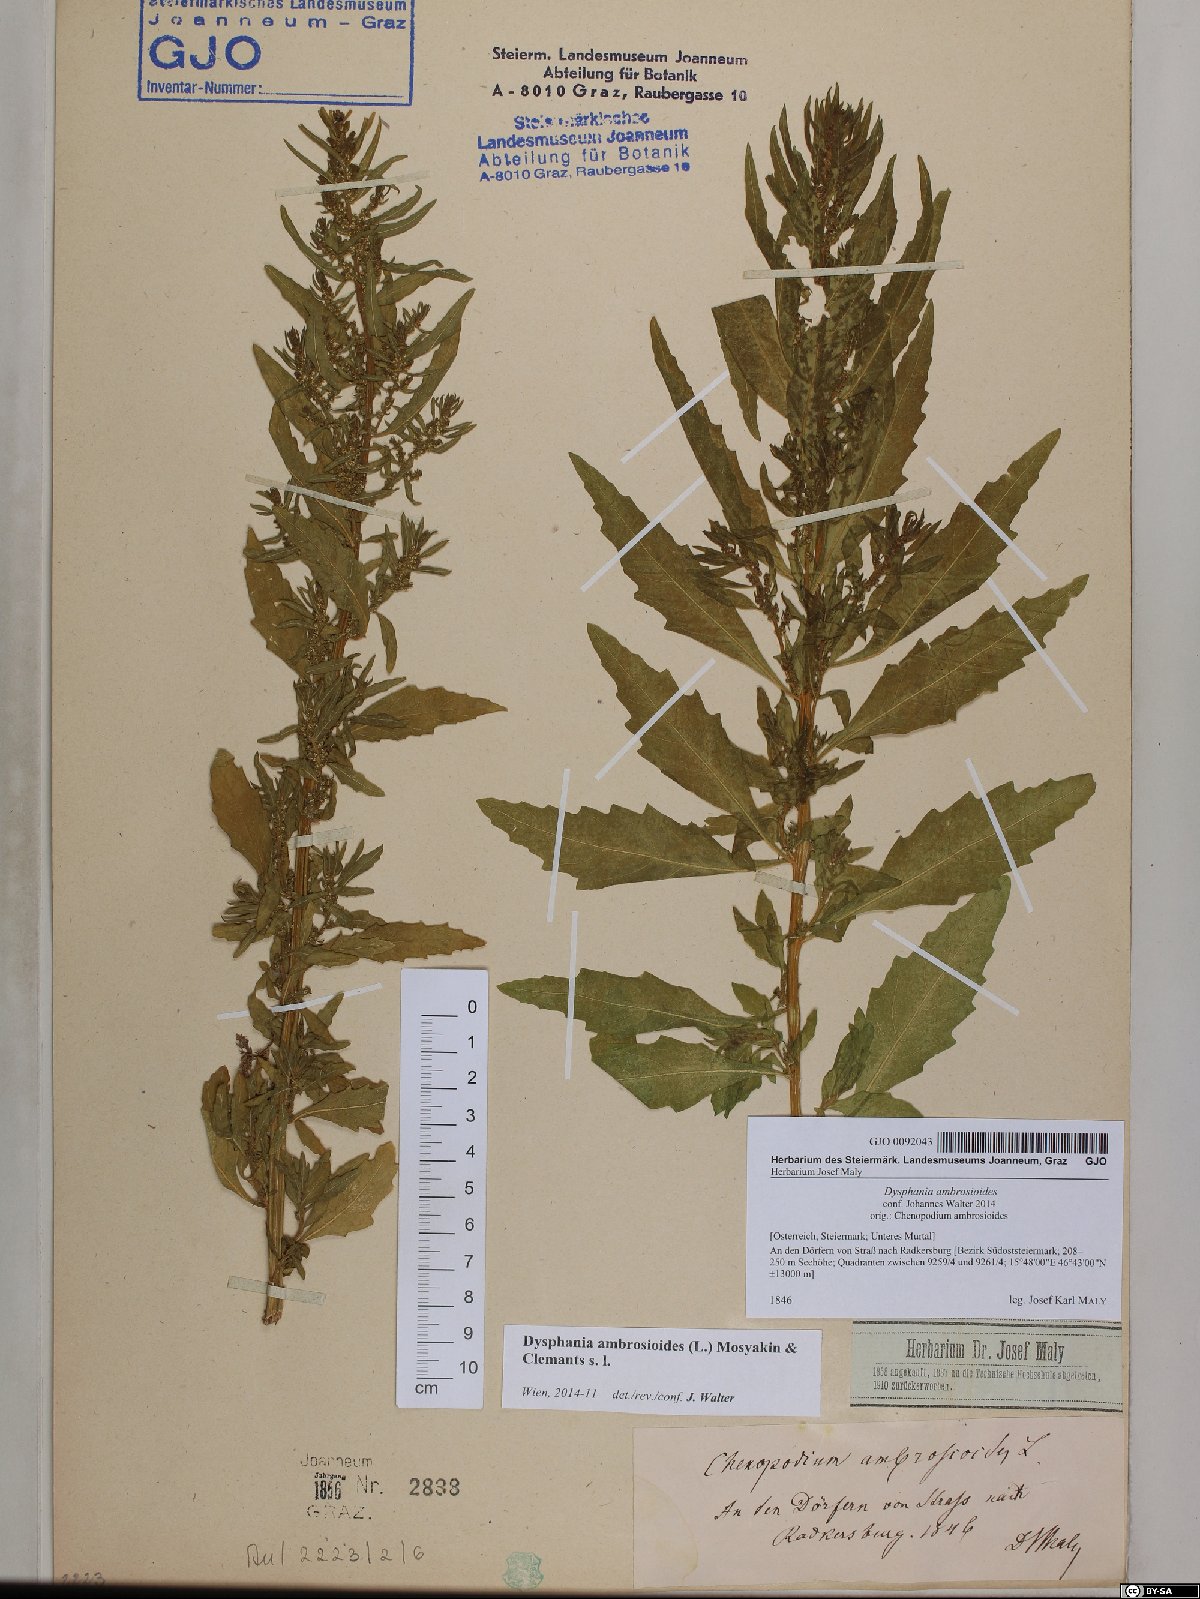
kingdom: Plantae
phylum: Tracheophyta
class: Magnoliopsida
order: Caryophyllales
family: Amaranthaceae
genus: Dysphania
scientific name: Dysphania ambrosioides
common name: Wormseed
